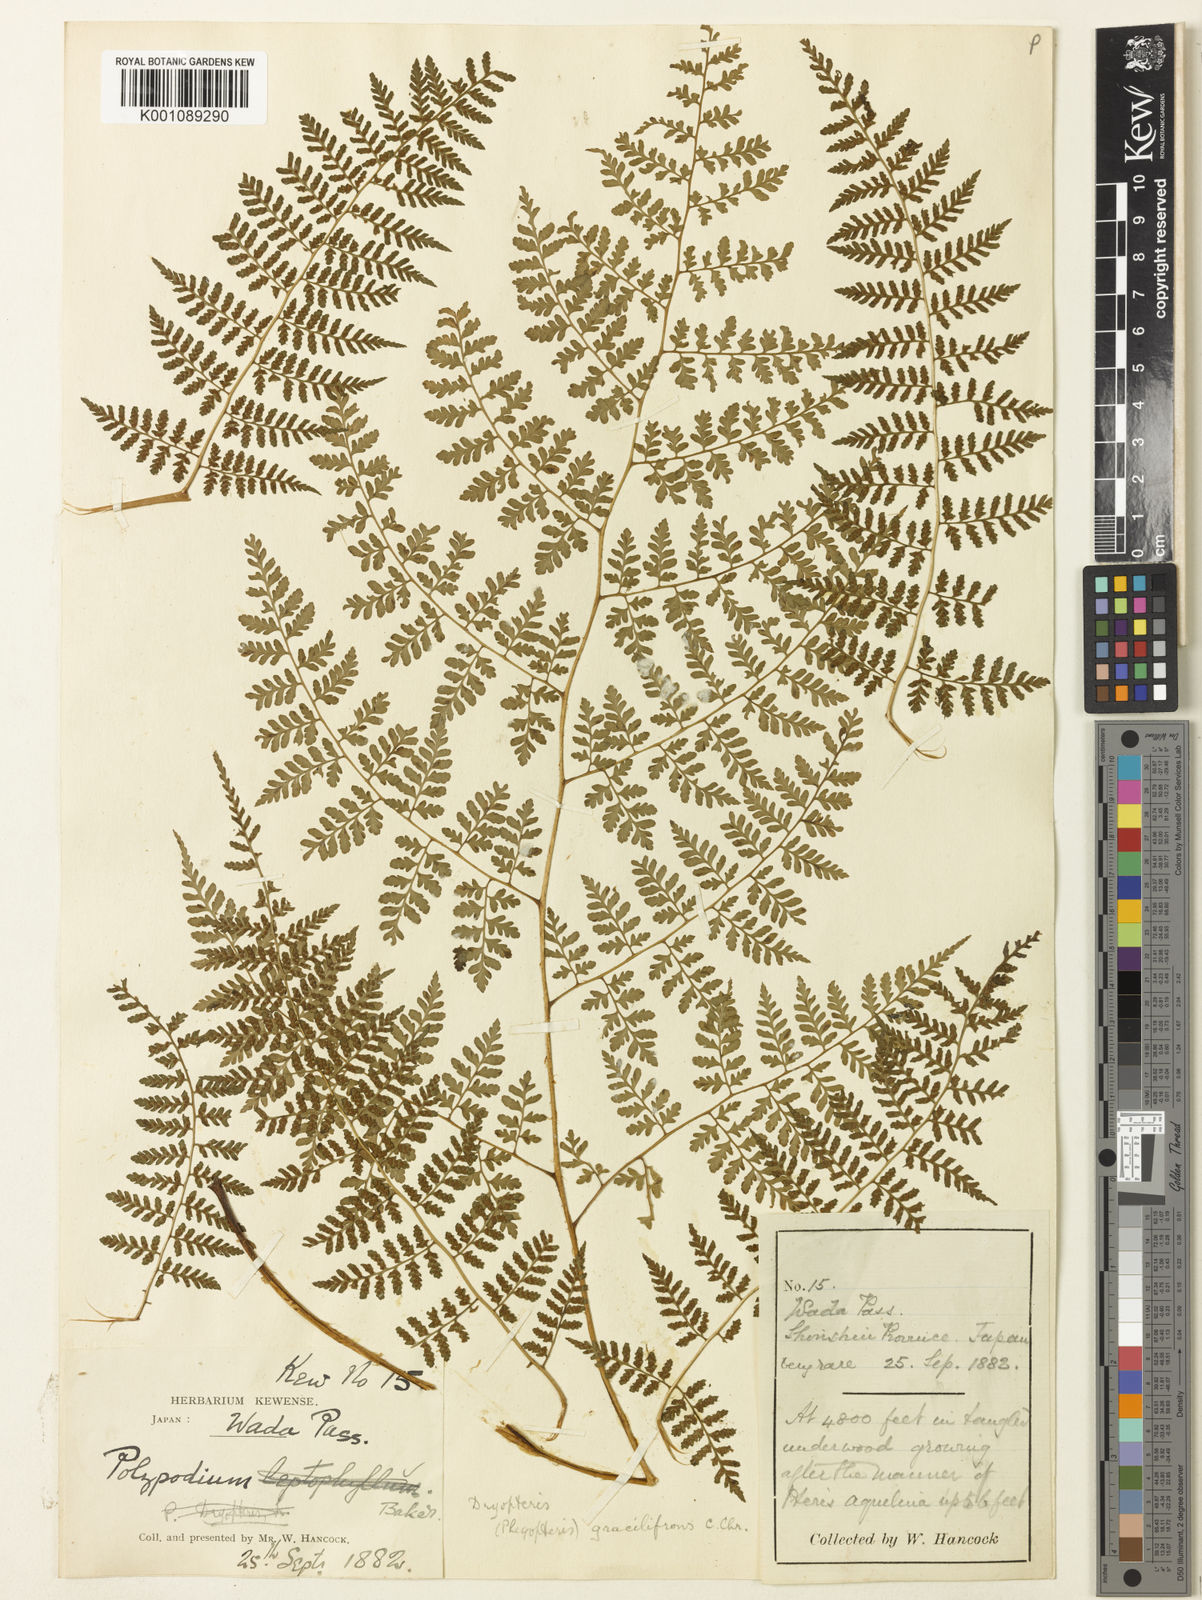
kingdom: Plantae
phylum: Tracheophyta
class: Polypodiopsida
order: Polypodiales
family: Athyriaceae
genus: Athyrium
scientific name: Athyrium atkinsonii
